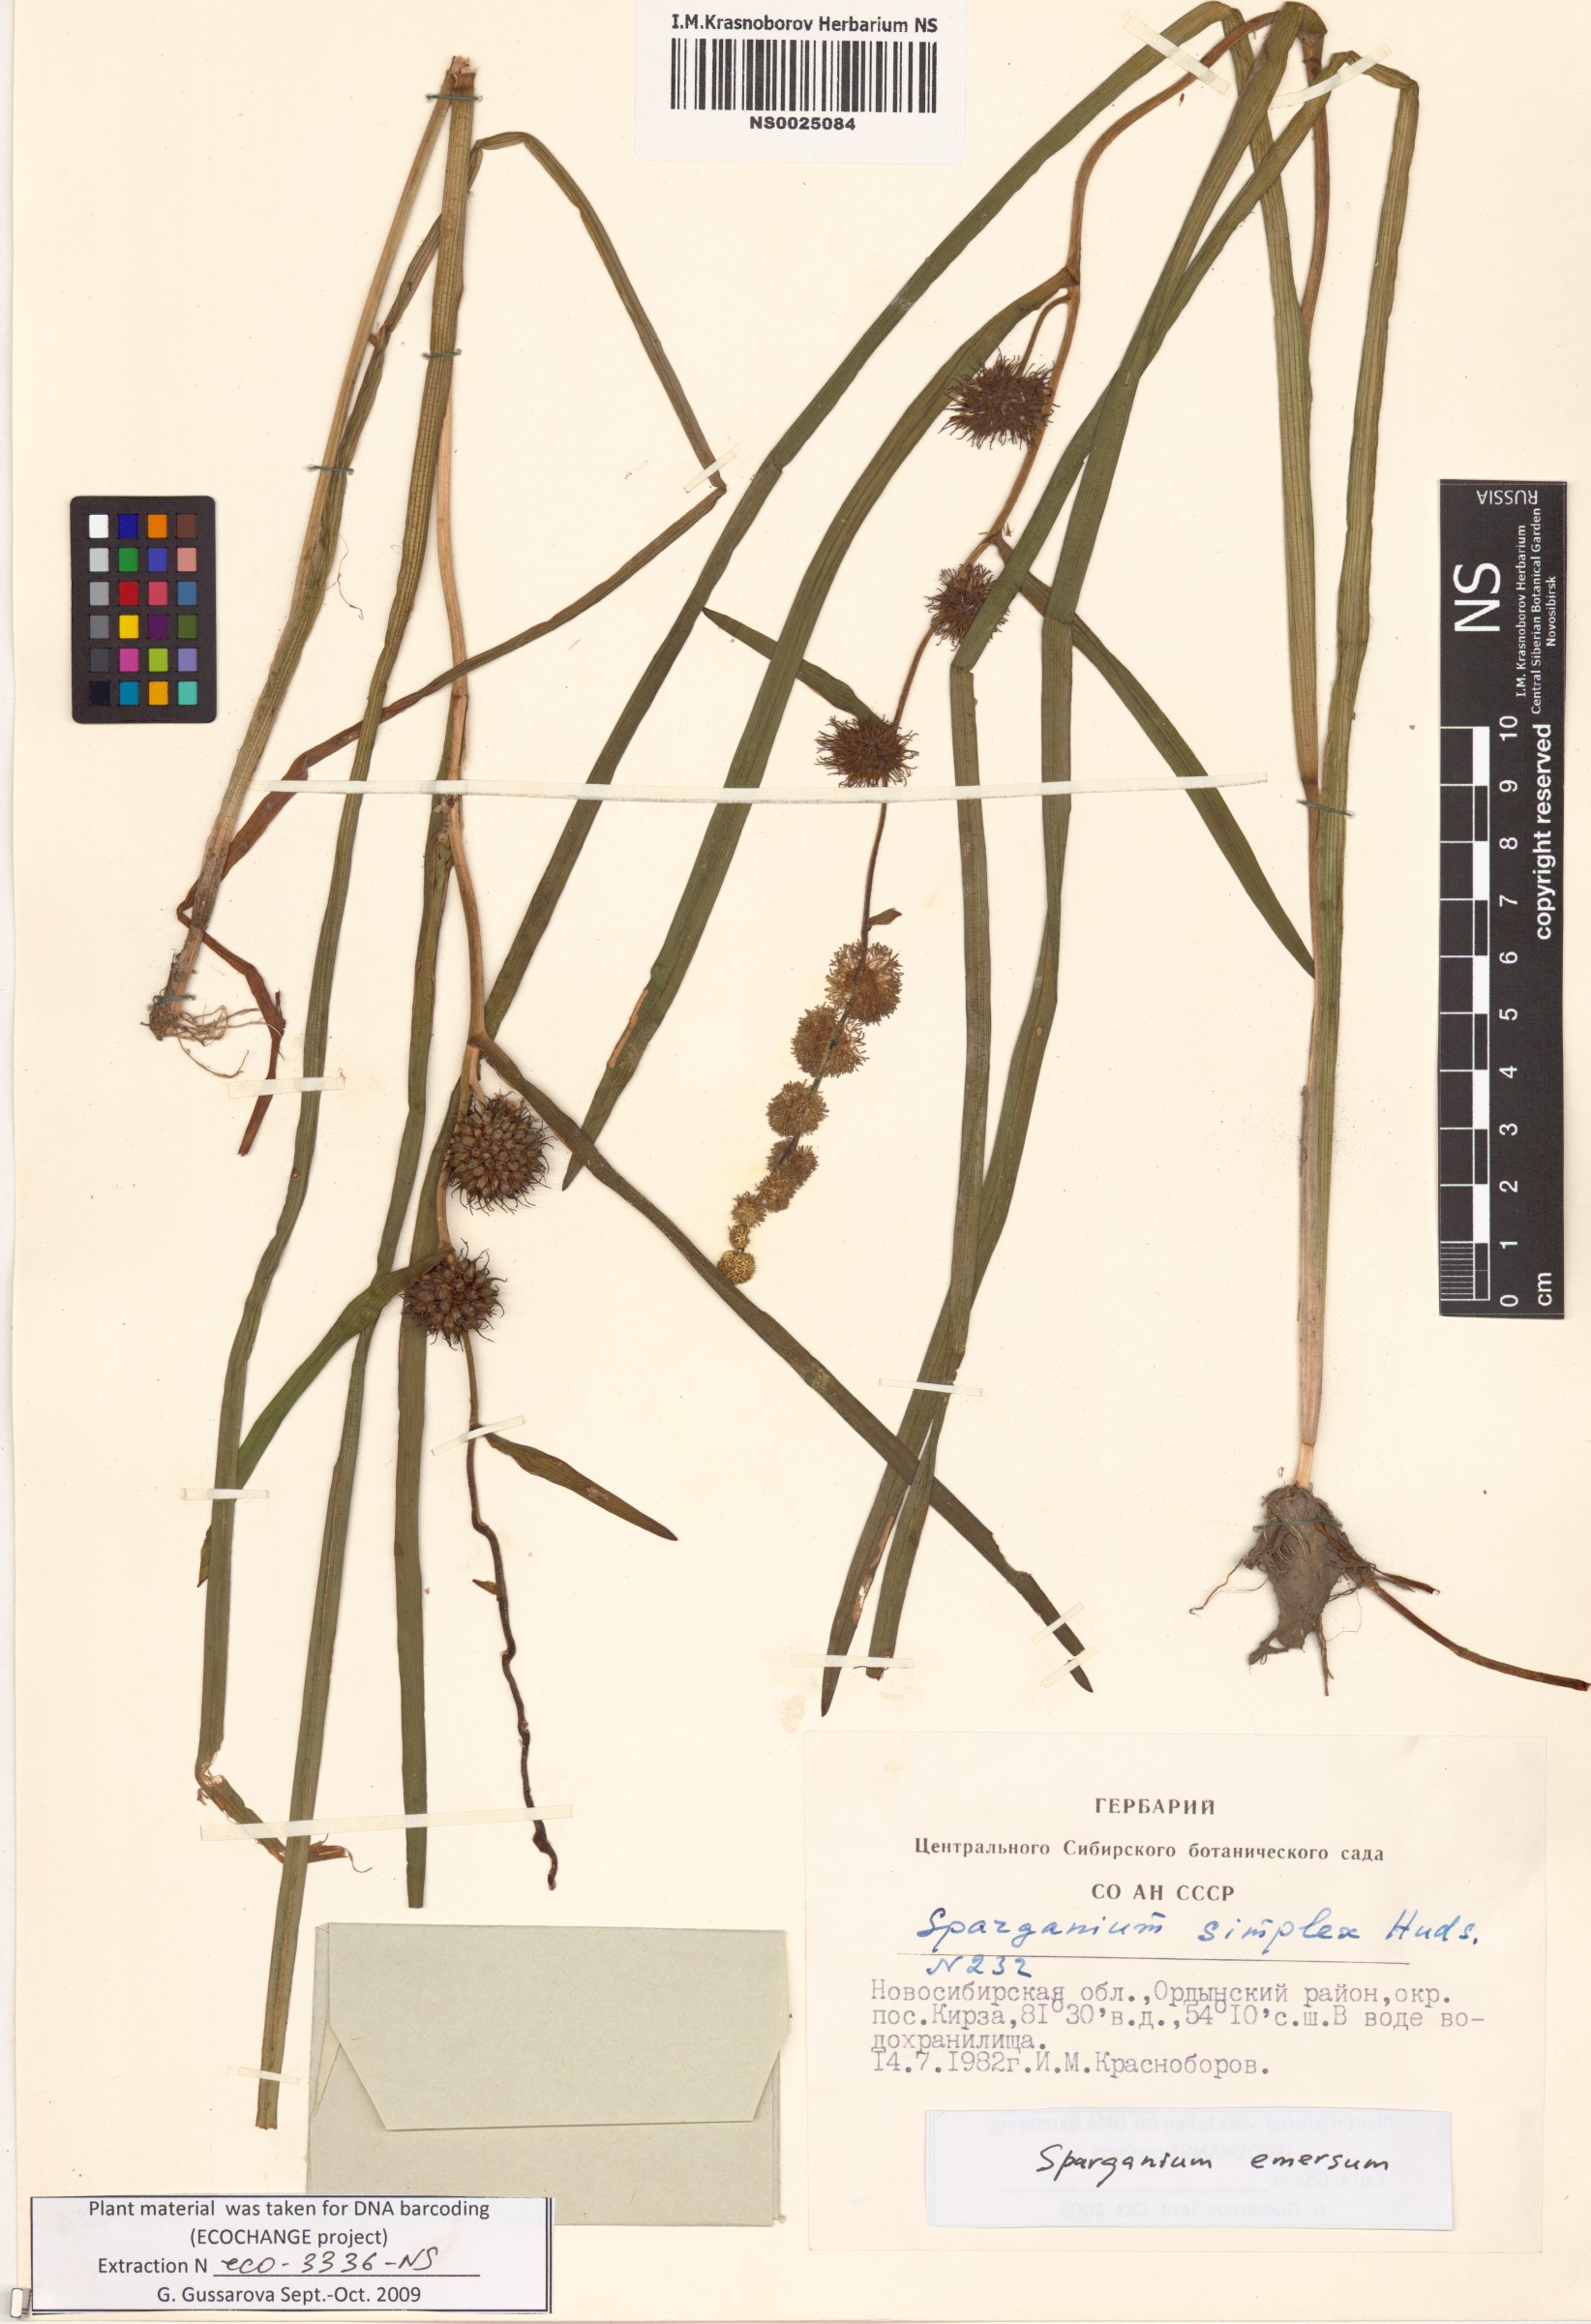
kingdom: Plantae
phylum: Tracheophyta
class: Liliopsida
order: Poales
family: Typhaceae
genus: Sparganium
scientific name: Sparganium emersum
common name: Unbranched bur-reed
